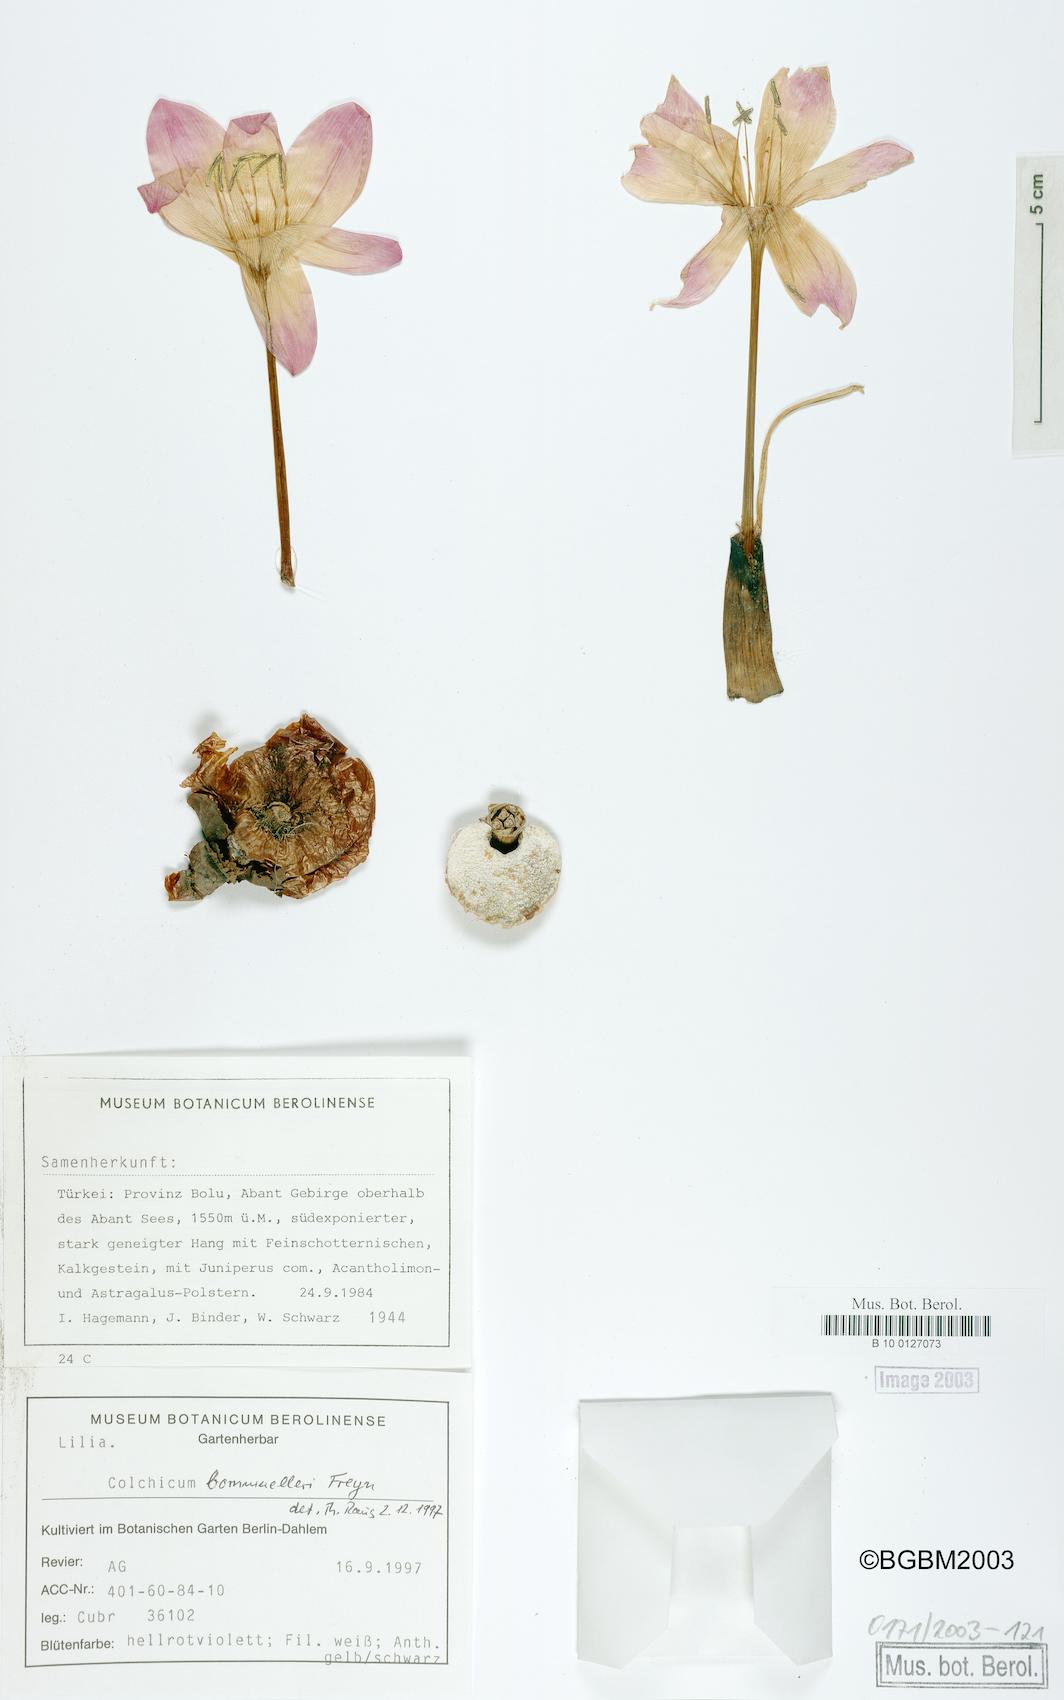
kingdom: Plantae
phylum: Tracheophyta
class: Liliopsida
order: Liliales
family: Colchicaceae
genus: Colchicum
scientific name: Colchicum speciosum
